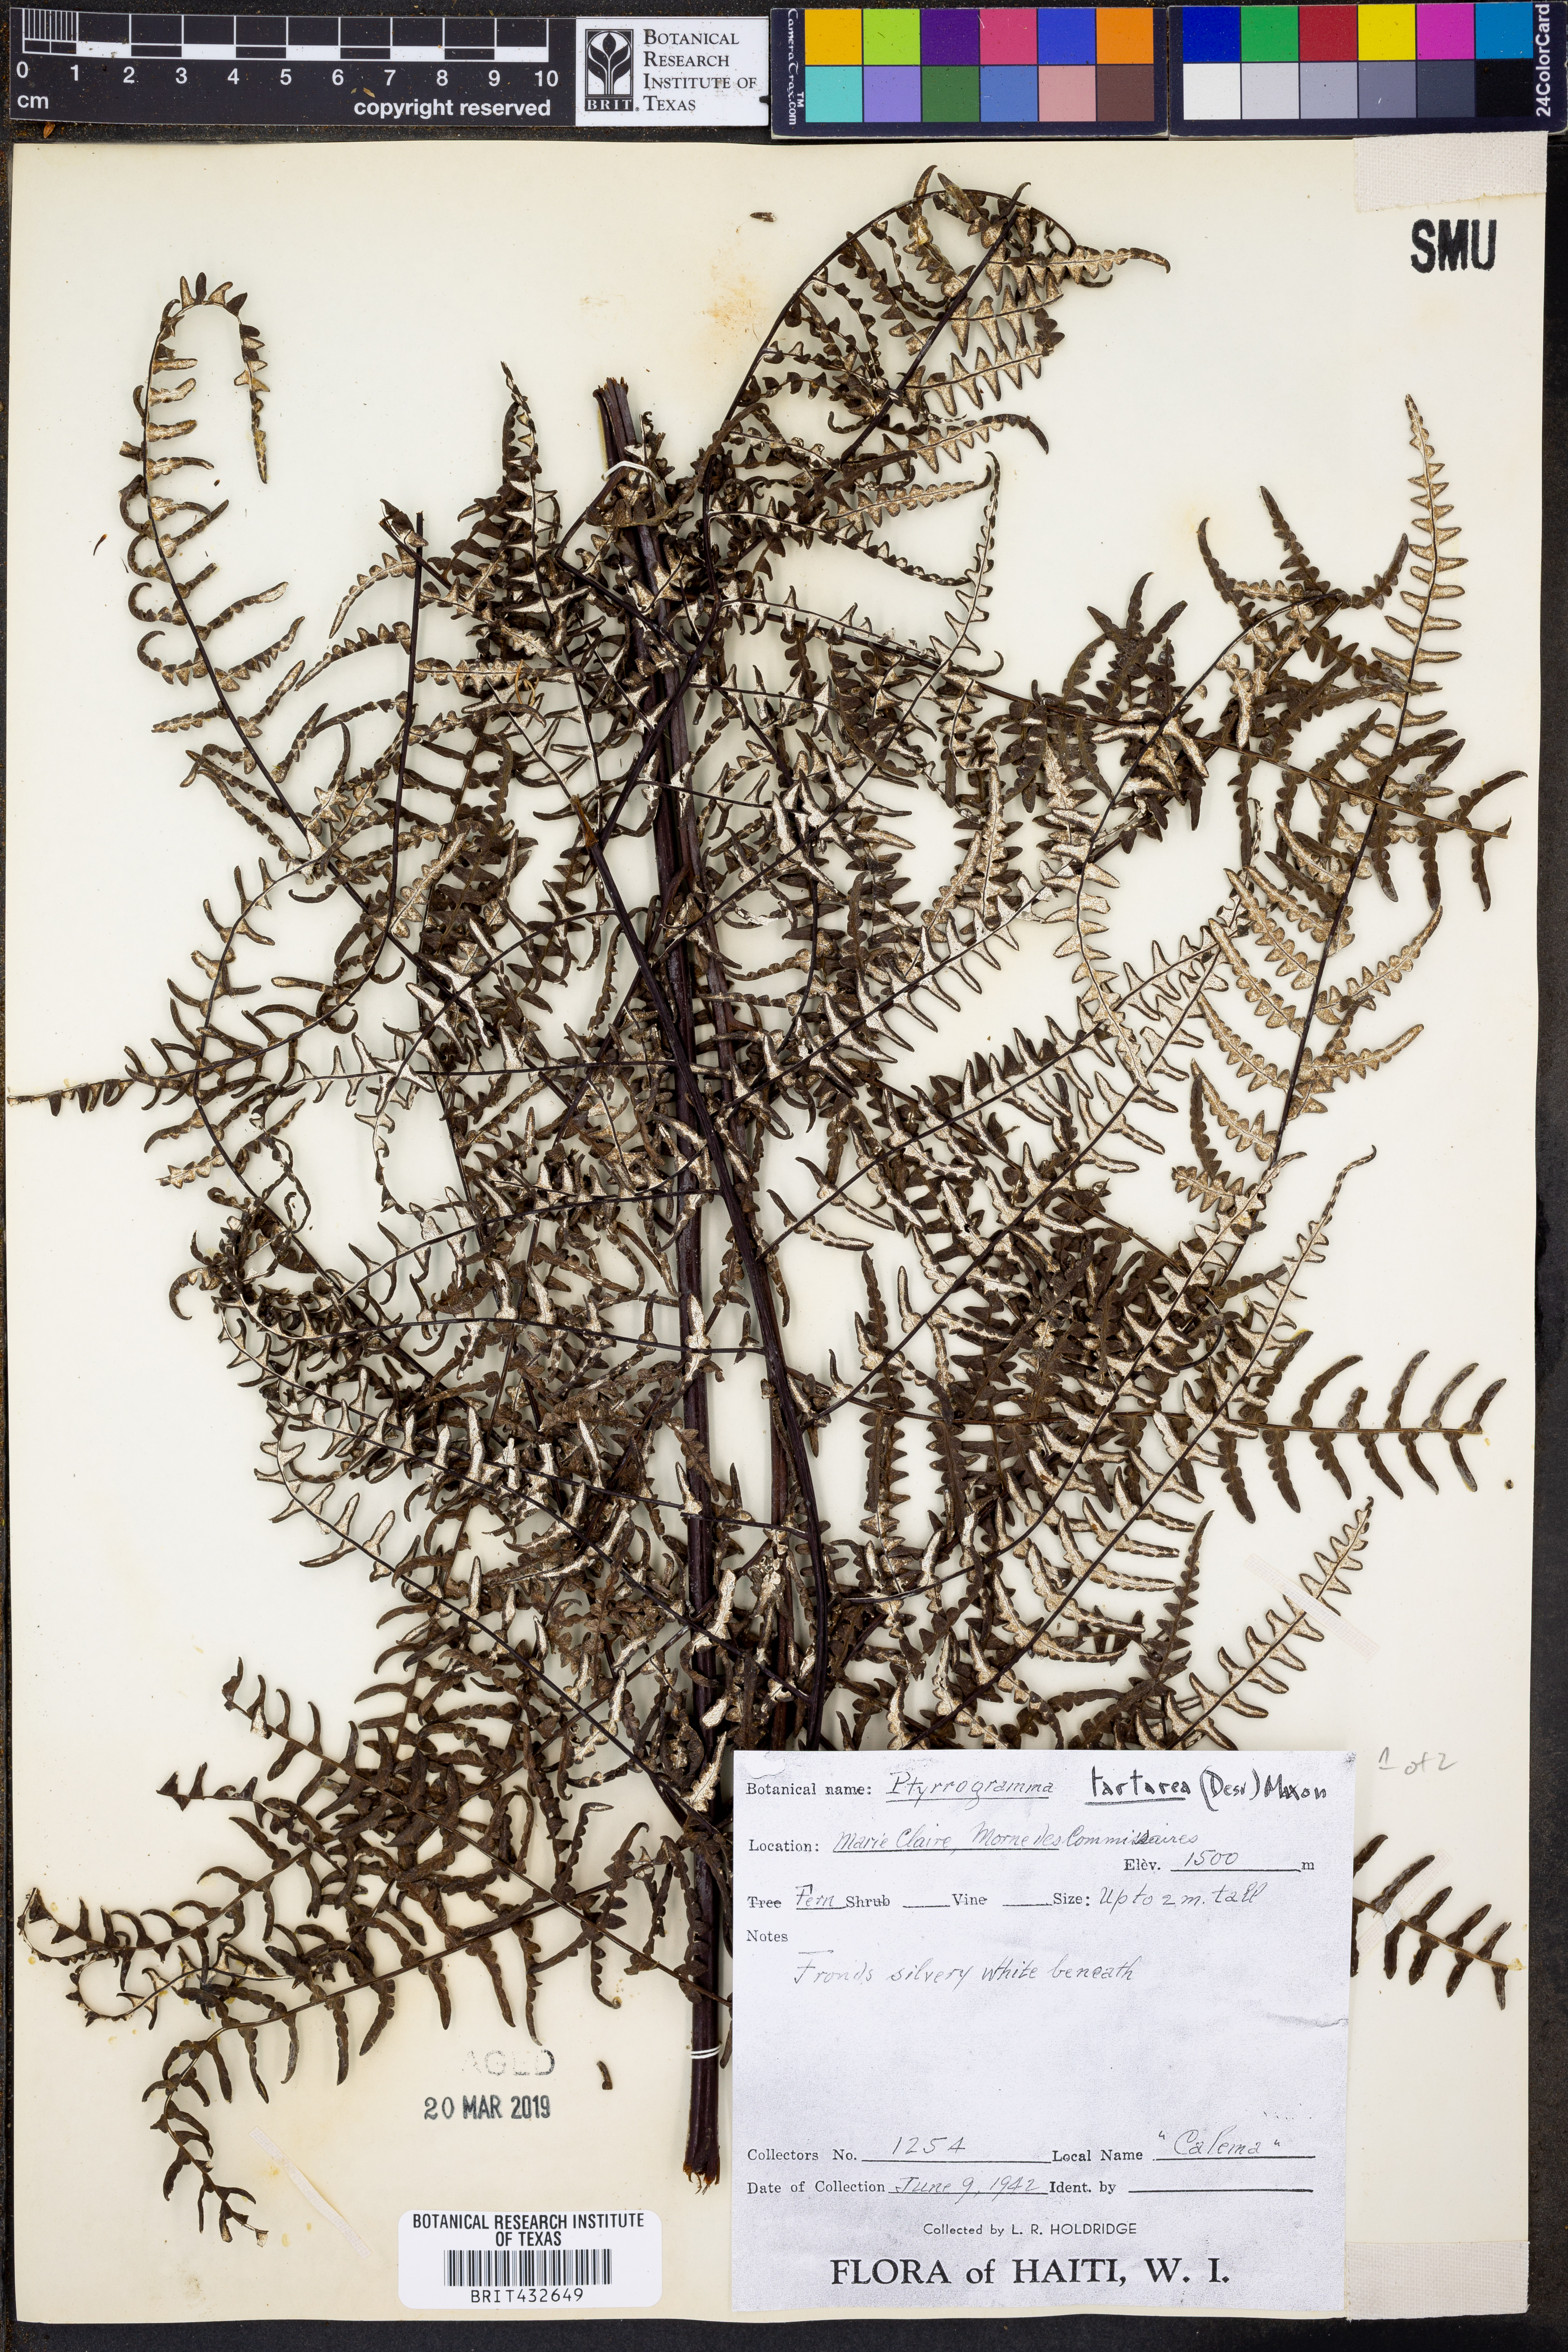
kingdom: Plantae
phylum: Tracheophyta
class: Polypodiopsida
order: Polypodiales
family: Pteridaceae
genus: Pityrogramma
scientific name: Pityrogramma ebenea
